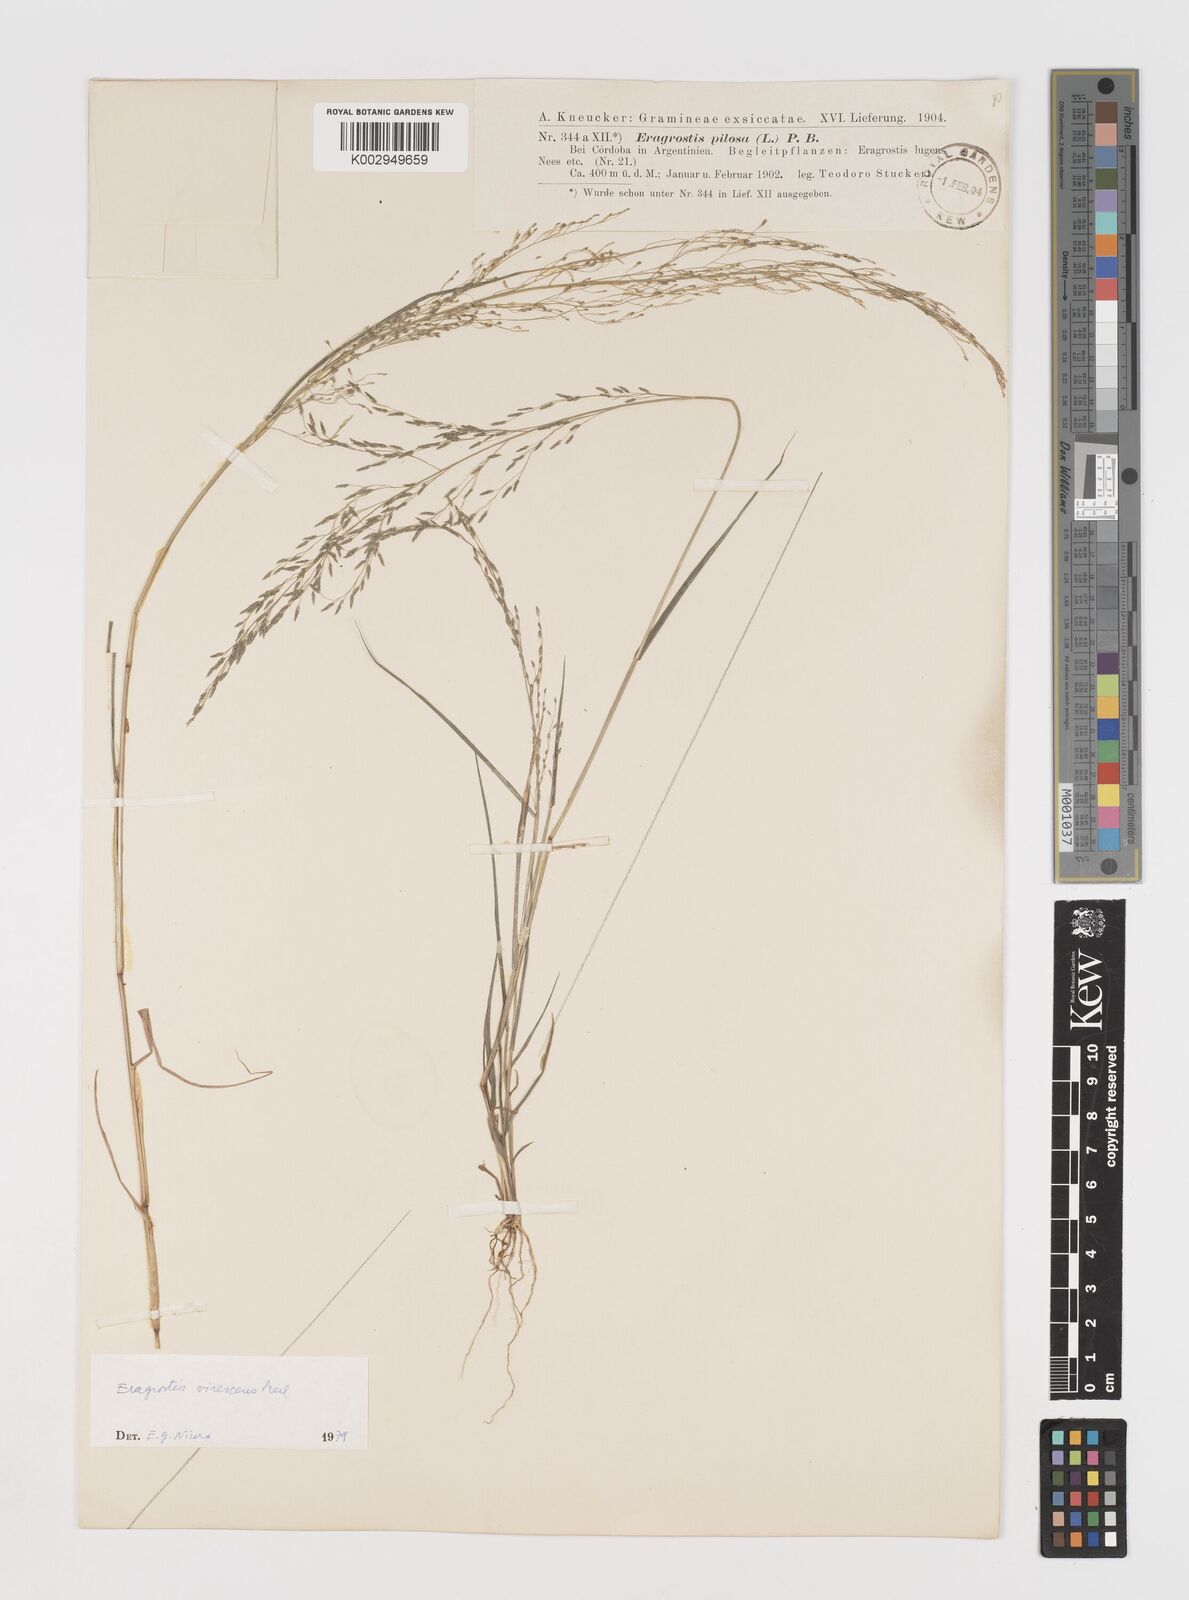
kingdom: Plantae
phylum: Tracheophyta
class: Liliopsida
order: Poales
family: Poaceae
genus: Eragrostis
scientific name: Eragrostis mexicana
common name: Mexican love grass
